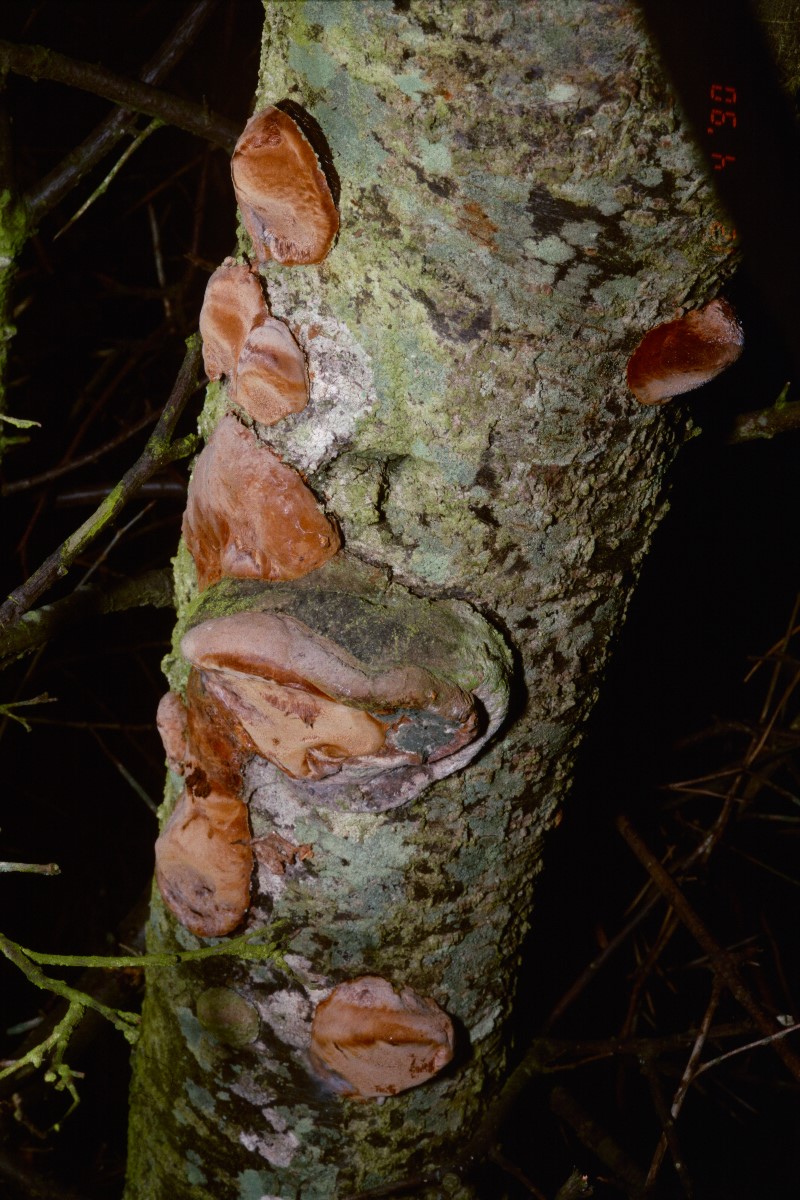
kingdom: Fungi
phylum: Basidiomycota
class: Agaricomycetes
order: Hymenochaetales
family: Hymenochaetaceae
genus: Phellinus
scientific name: Phellinus pomaceus
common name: blomme-ildporesvamp
